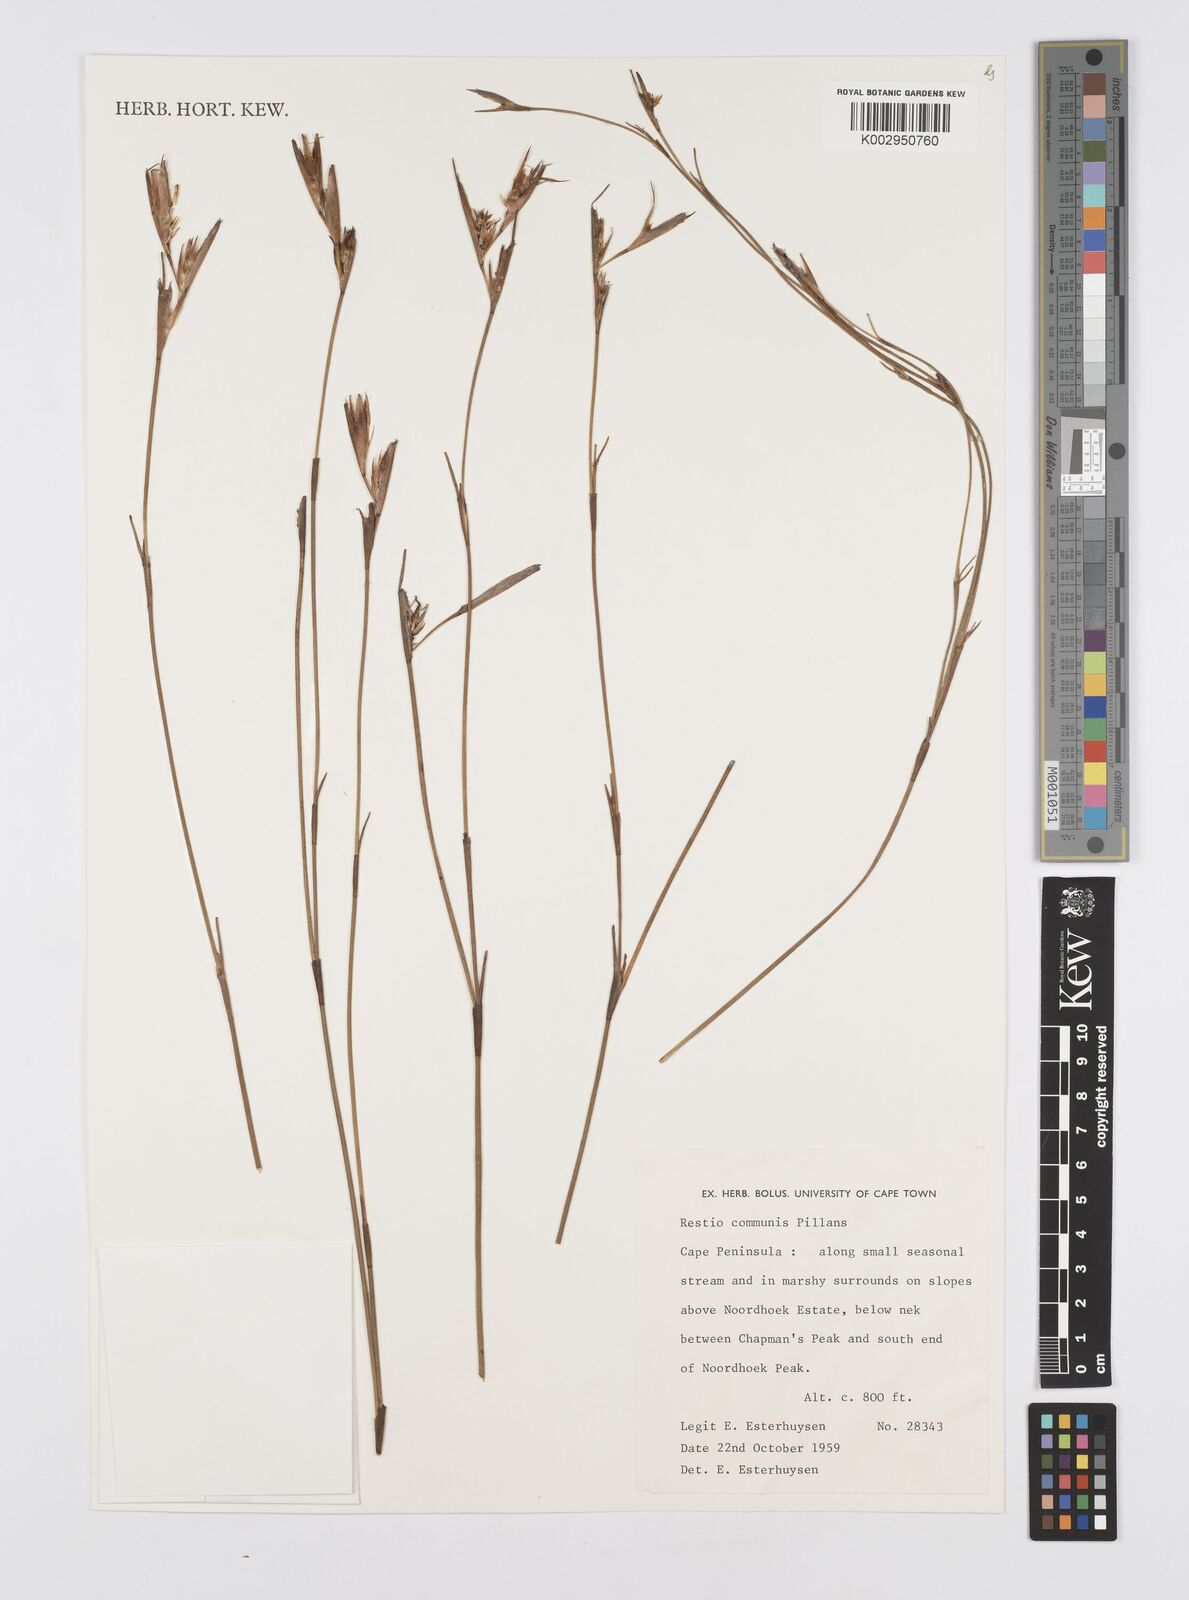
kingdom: Plantae
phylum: Tracheophyta
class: Liliopsida
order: Poales
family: Restionaceae
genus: Restio
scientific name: Restio communis
